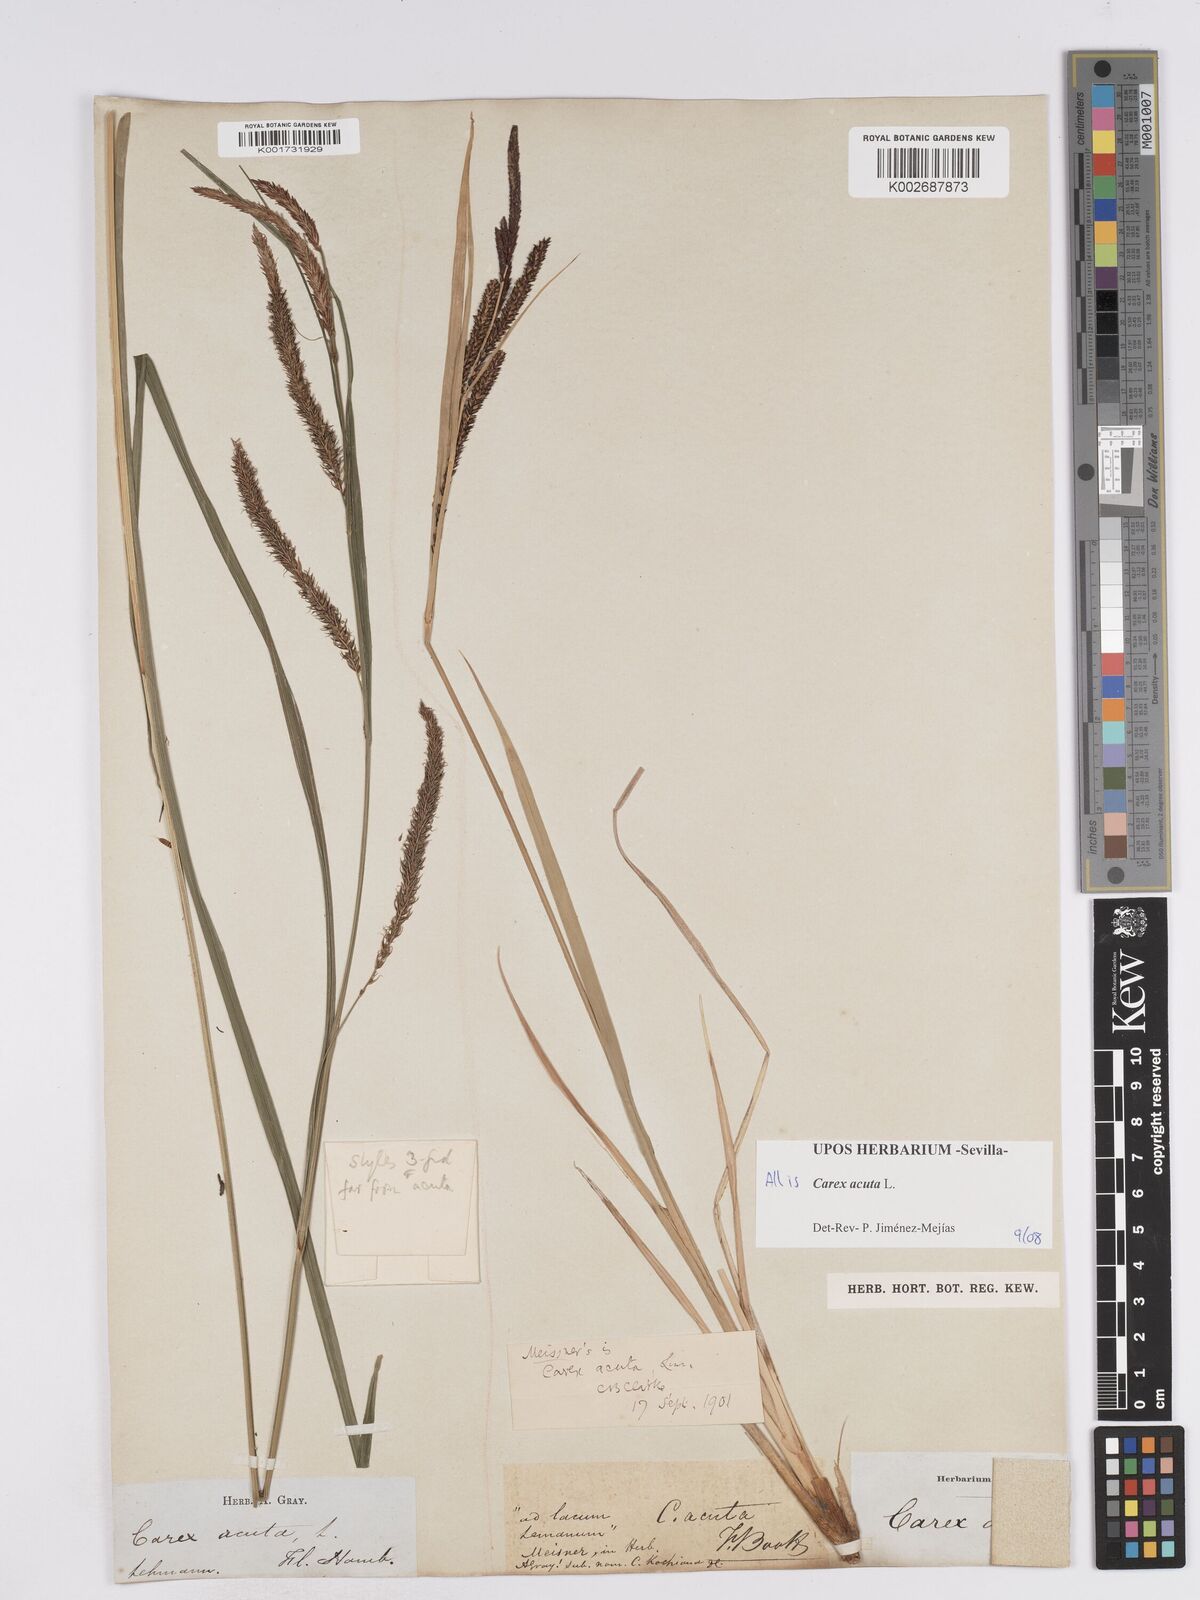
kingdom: Plantae
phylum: Tracheophyta
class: Liliopsida
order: Poales
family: Cyperaceae
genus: Carex
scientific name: Carex acuta
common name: Slender tufted-sedge
